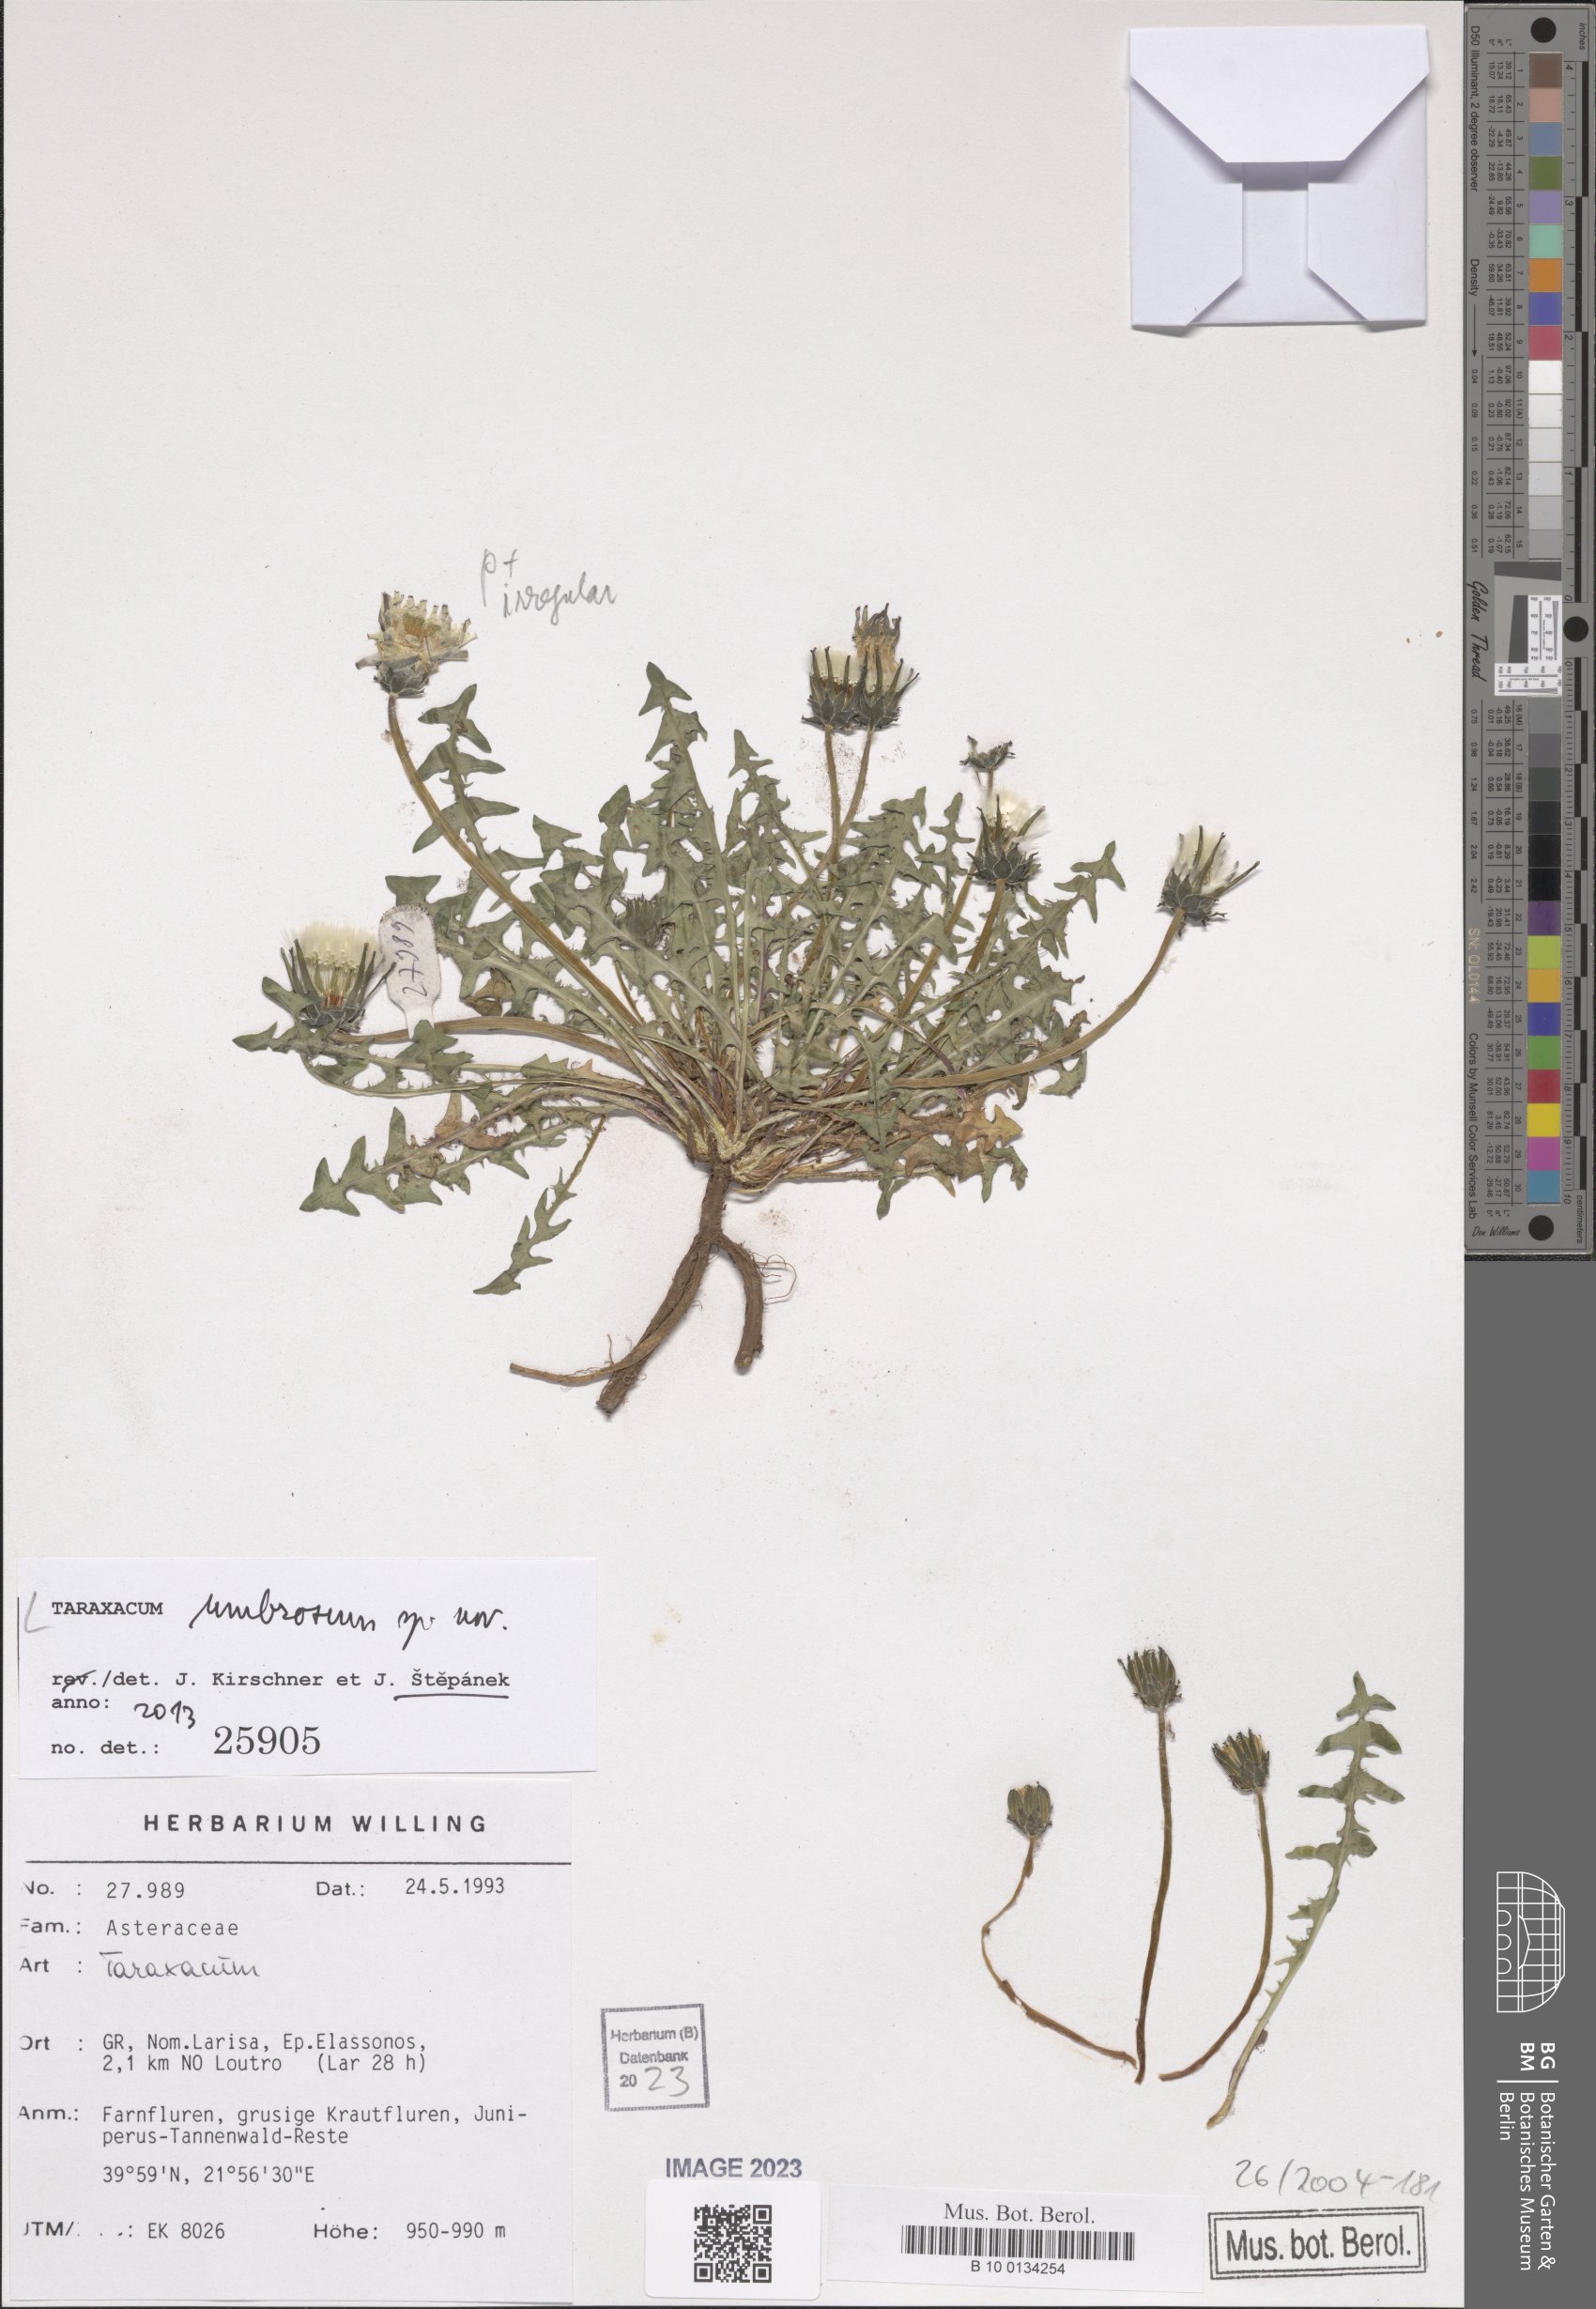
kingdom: Plantae
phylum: Tracheophyta
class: Magnoliopsida
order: Asterales
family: Asteraceae
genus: Taraxacum
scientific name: Taraxacum umbrosum
